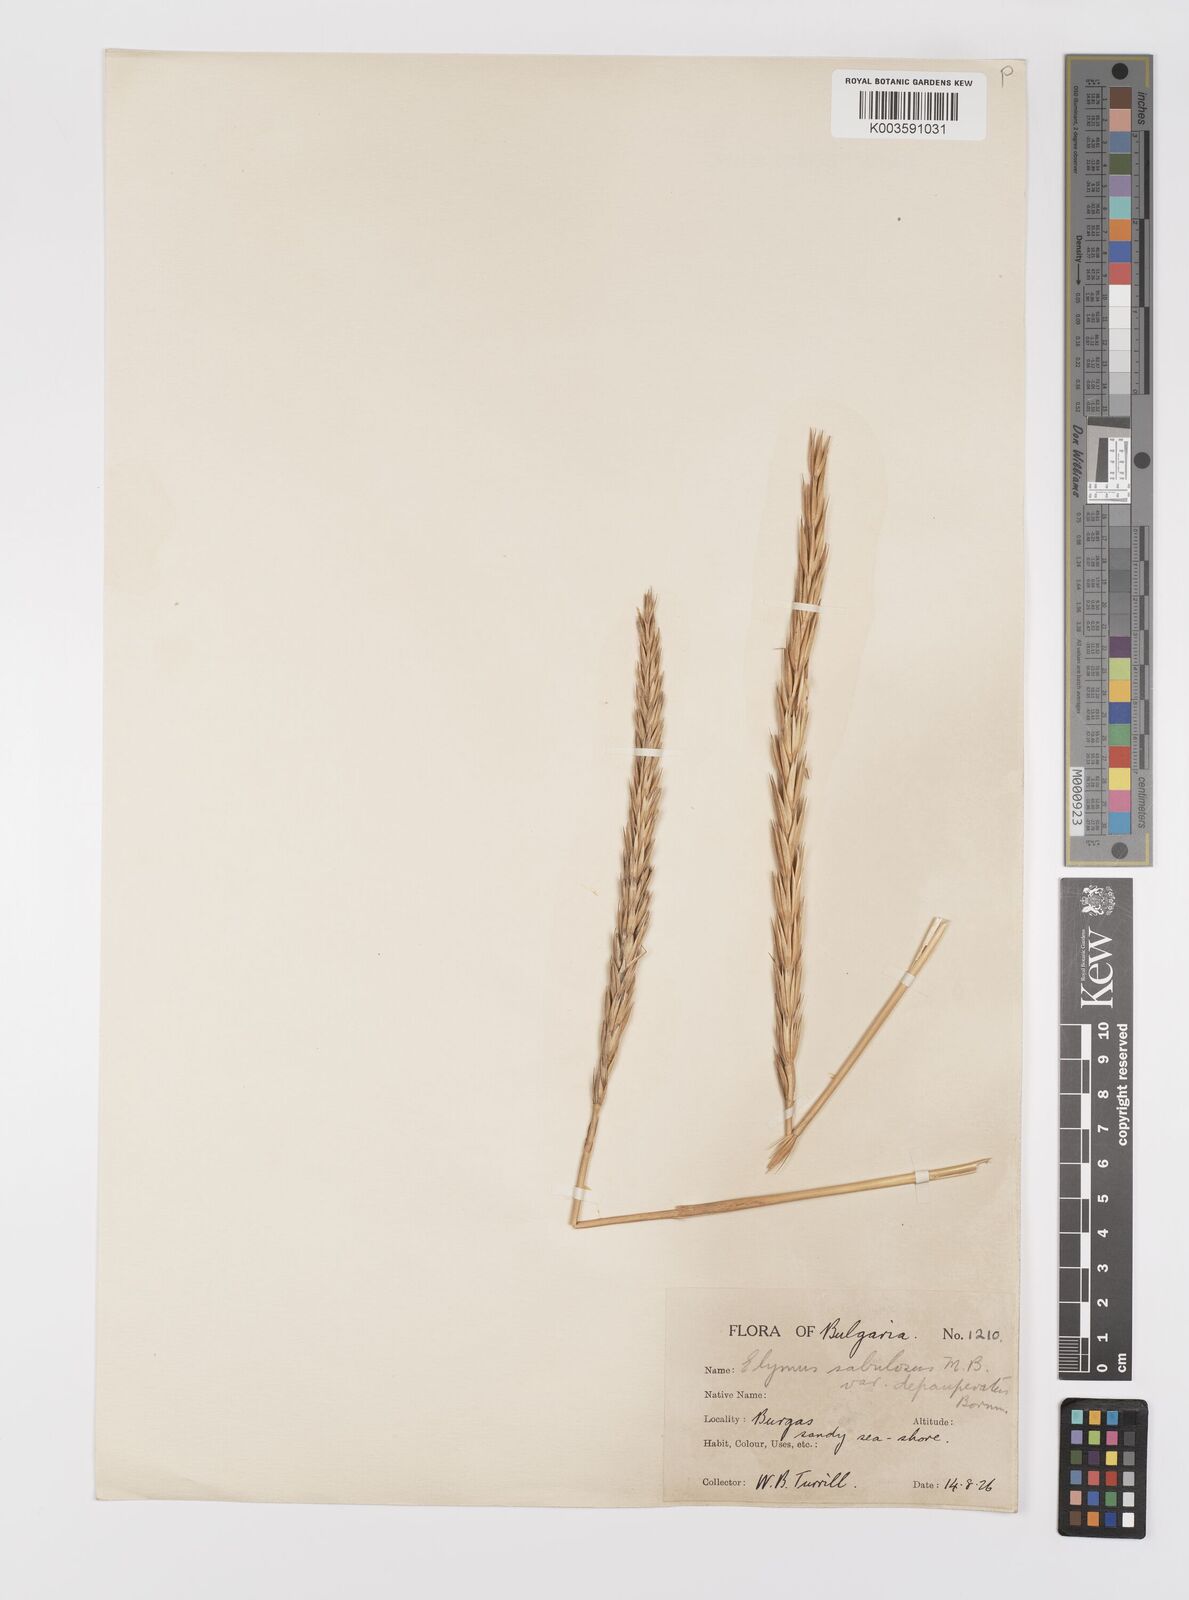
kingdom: Plantae
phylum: Tracheophyta
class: Liliopsida
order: Poales
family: Poaceae
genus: Leymus
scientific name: Leymus racemosus
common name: Mammoth wildrye
